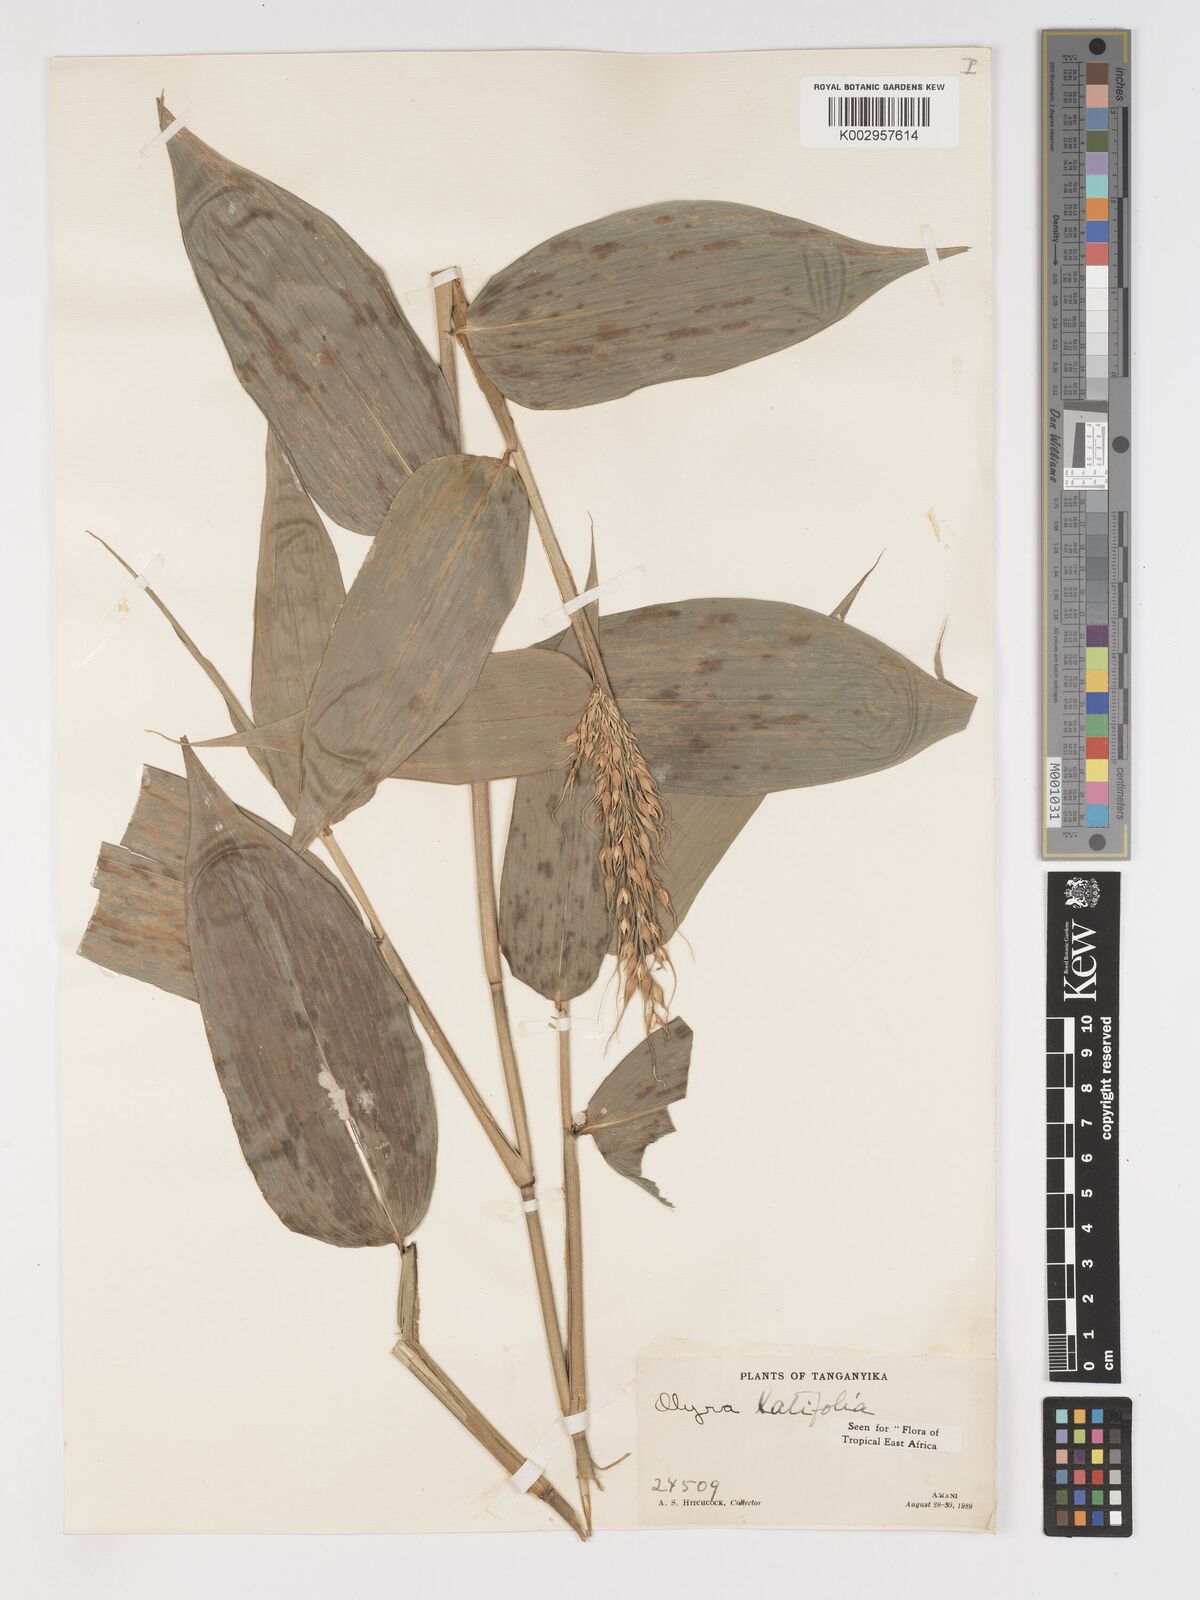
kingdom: Plantae
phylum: Tracheophyta
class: Liliopsida
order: Poales
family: Poaceae
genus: Olyra
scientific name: Olyra latifolia
